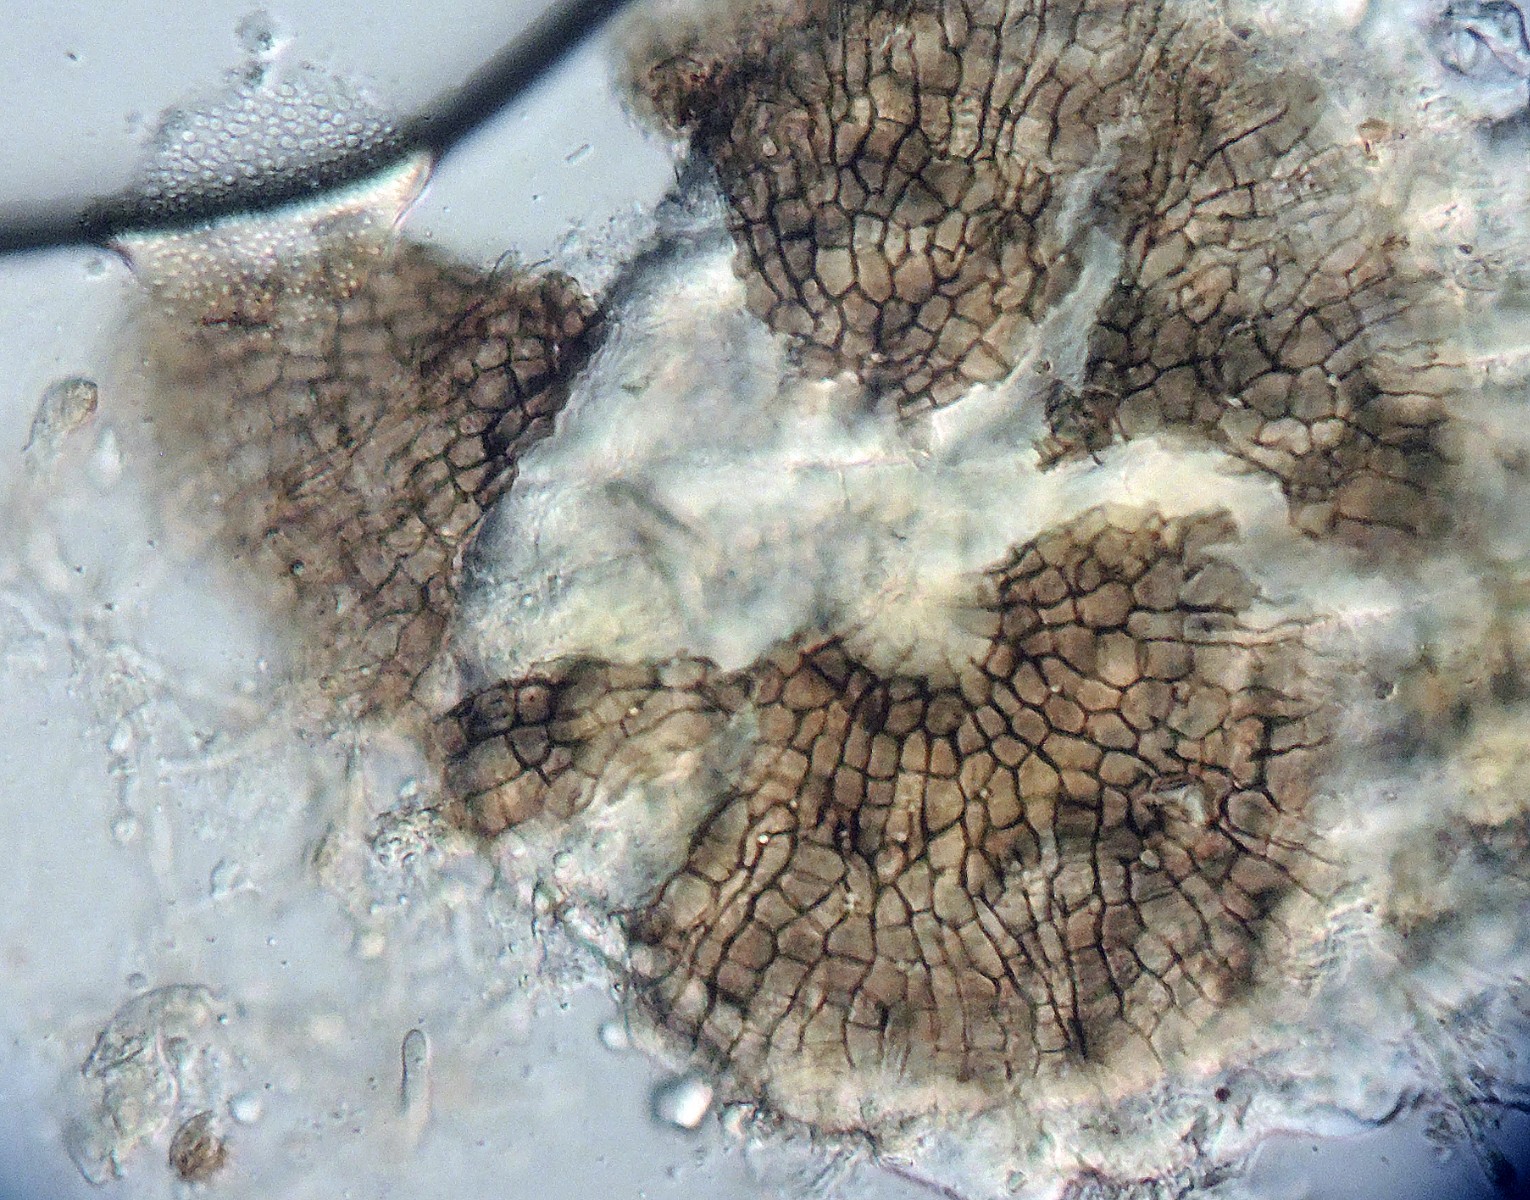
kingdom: Fungi
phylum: Ascomycota
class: Dothideomycetes
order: Microthyriales
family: Microthyriaceae
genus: Microthyrium
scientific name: Microthyrium macrosporum
